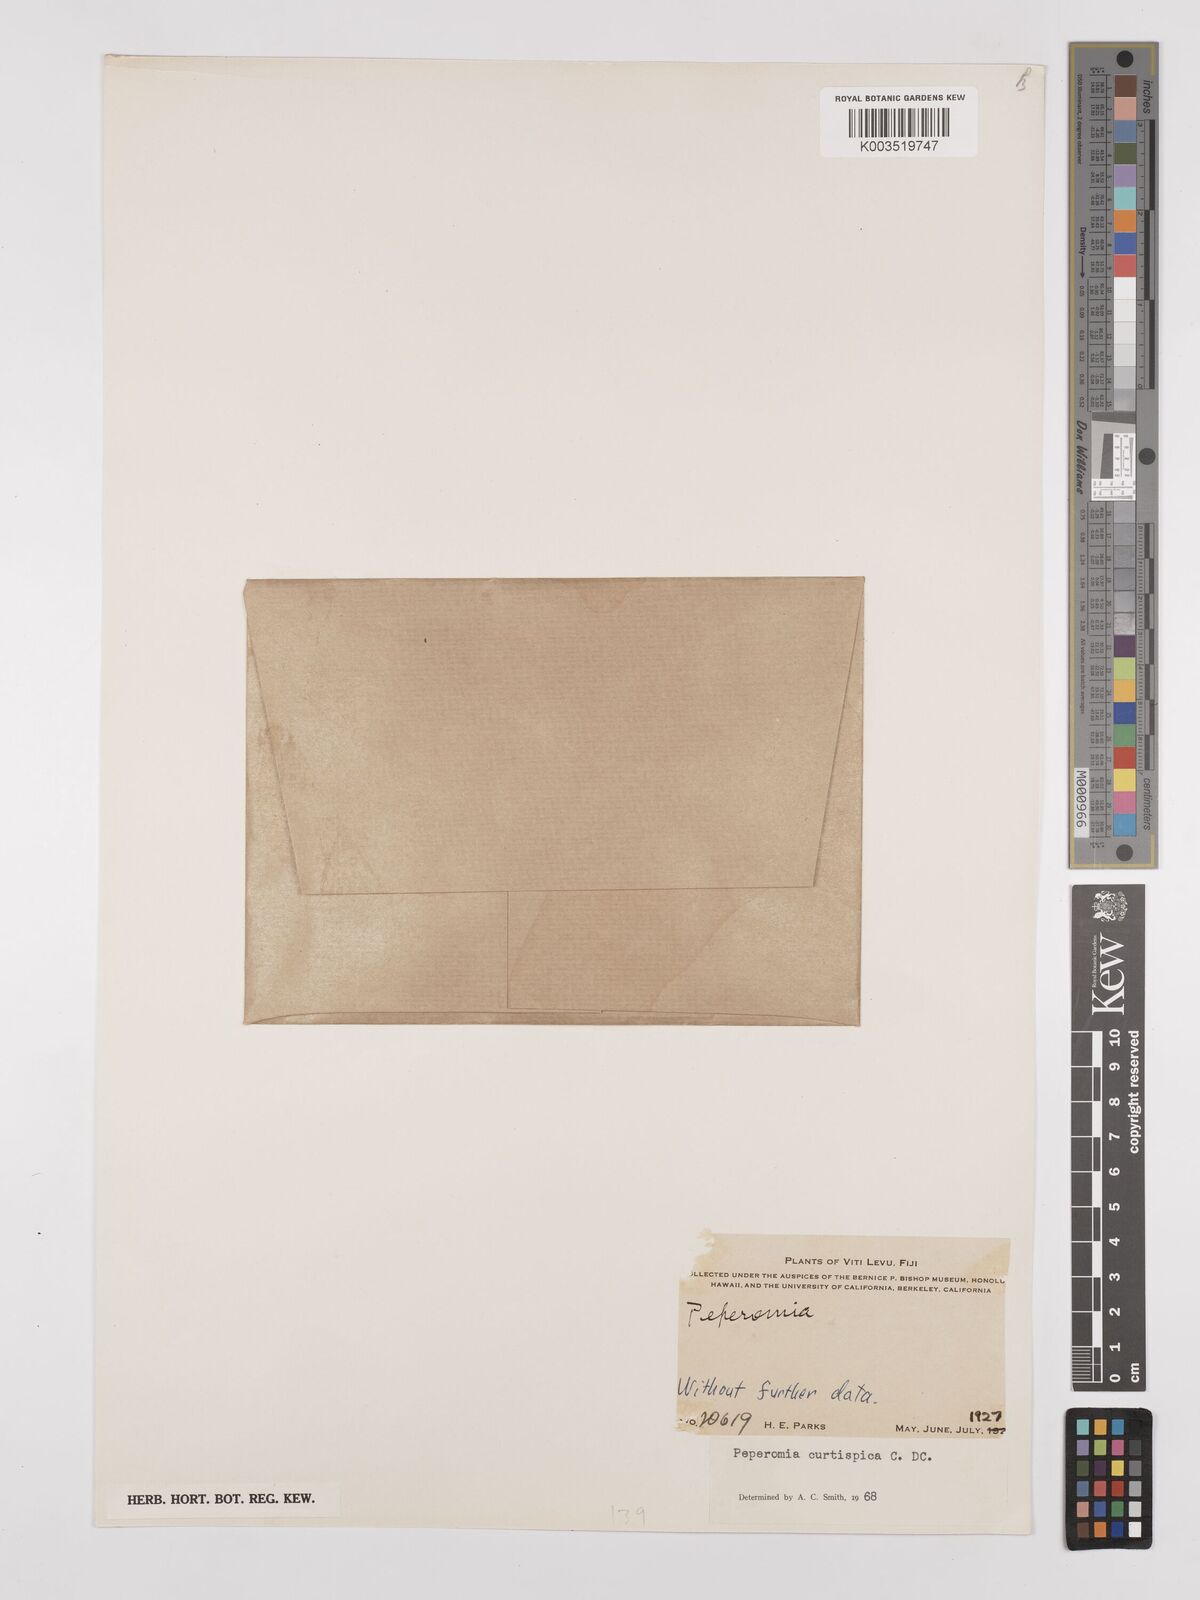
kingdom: Plantae
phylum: Tracheophyta
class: Magnoliopsida
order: Piperales
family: Piperaceae
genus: Peperomia
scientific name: Peperomia curtispica
